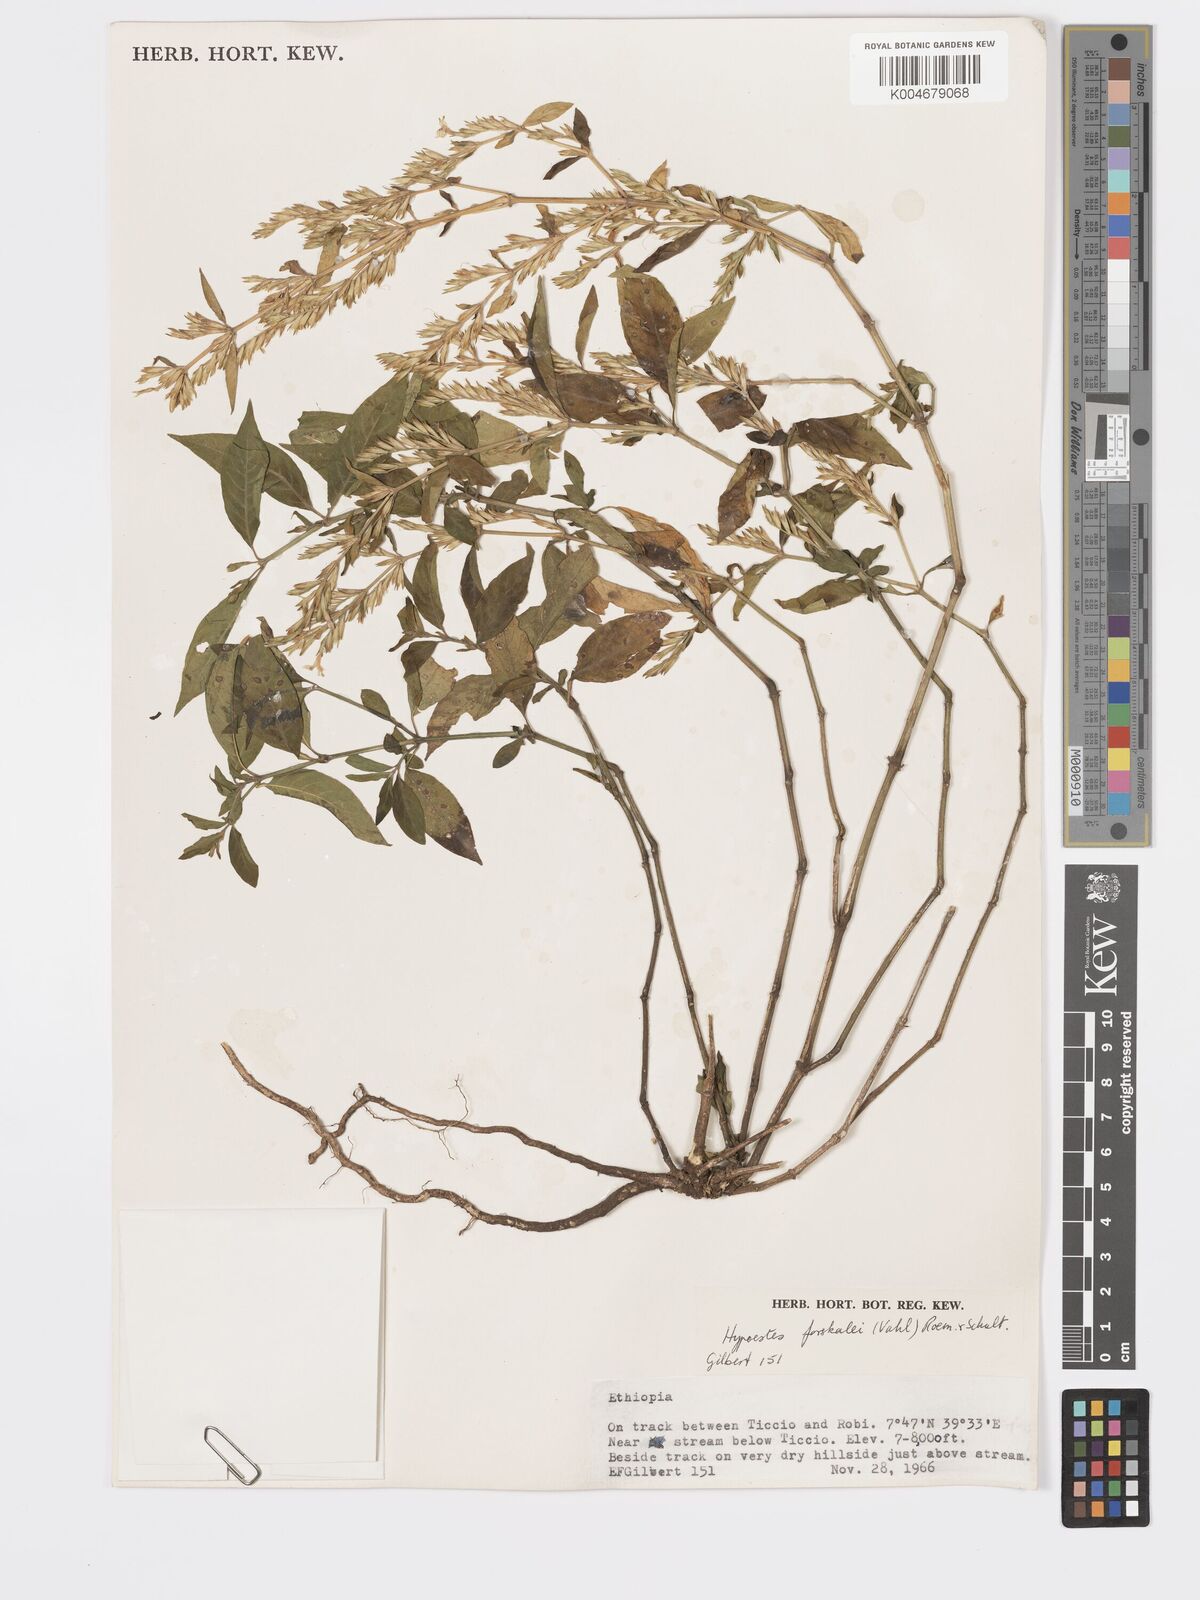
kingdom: Plantae
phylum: Tracheophyta
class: Magnoliopsida
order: Lamiales
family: Acanthaceae
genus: Hypoestes
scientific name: Hypoestes forskaolii
